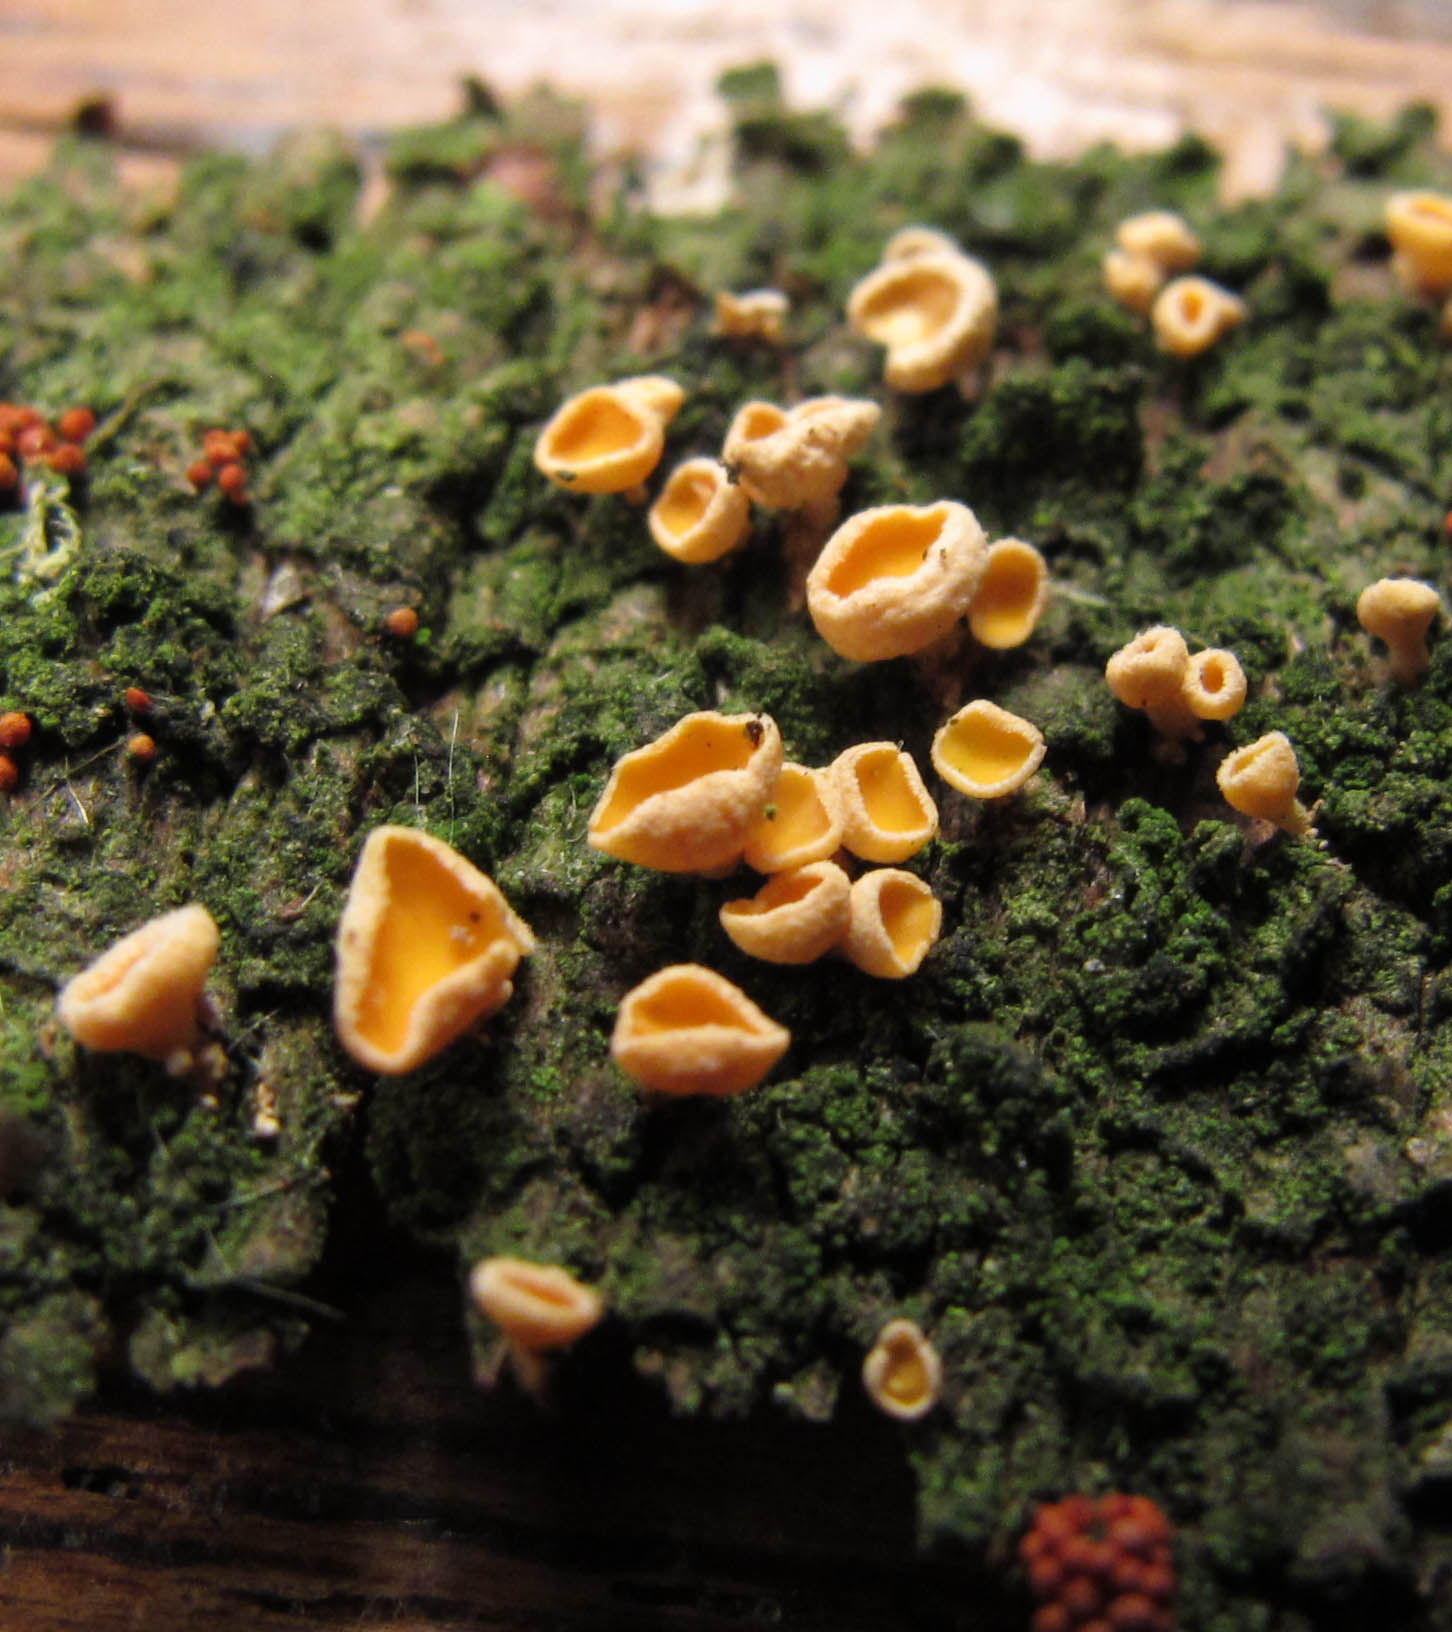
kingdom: Fungi
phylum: Ascomycota
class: Leotiomycetes
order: Helotiales
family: Lachnaceae
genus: Lachnellula
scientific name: Lachnellula subtilissima
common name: gran-frynseskive
